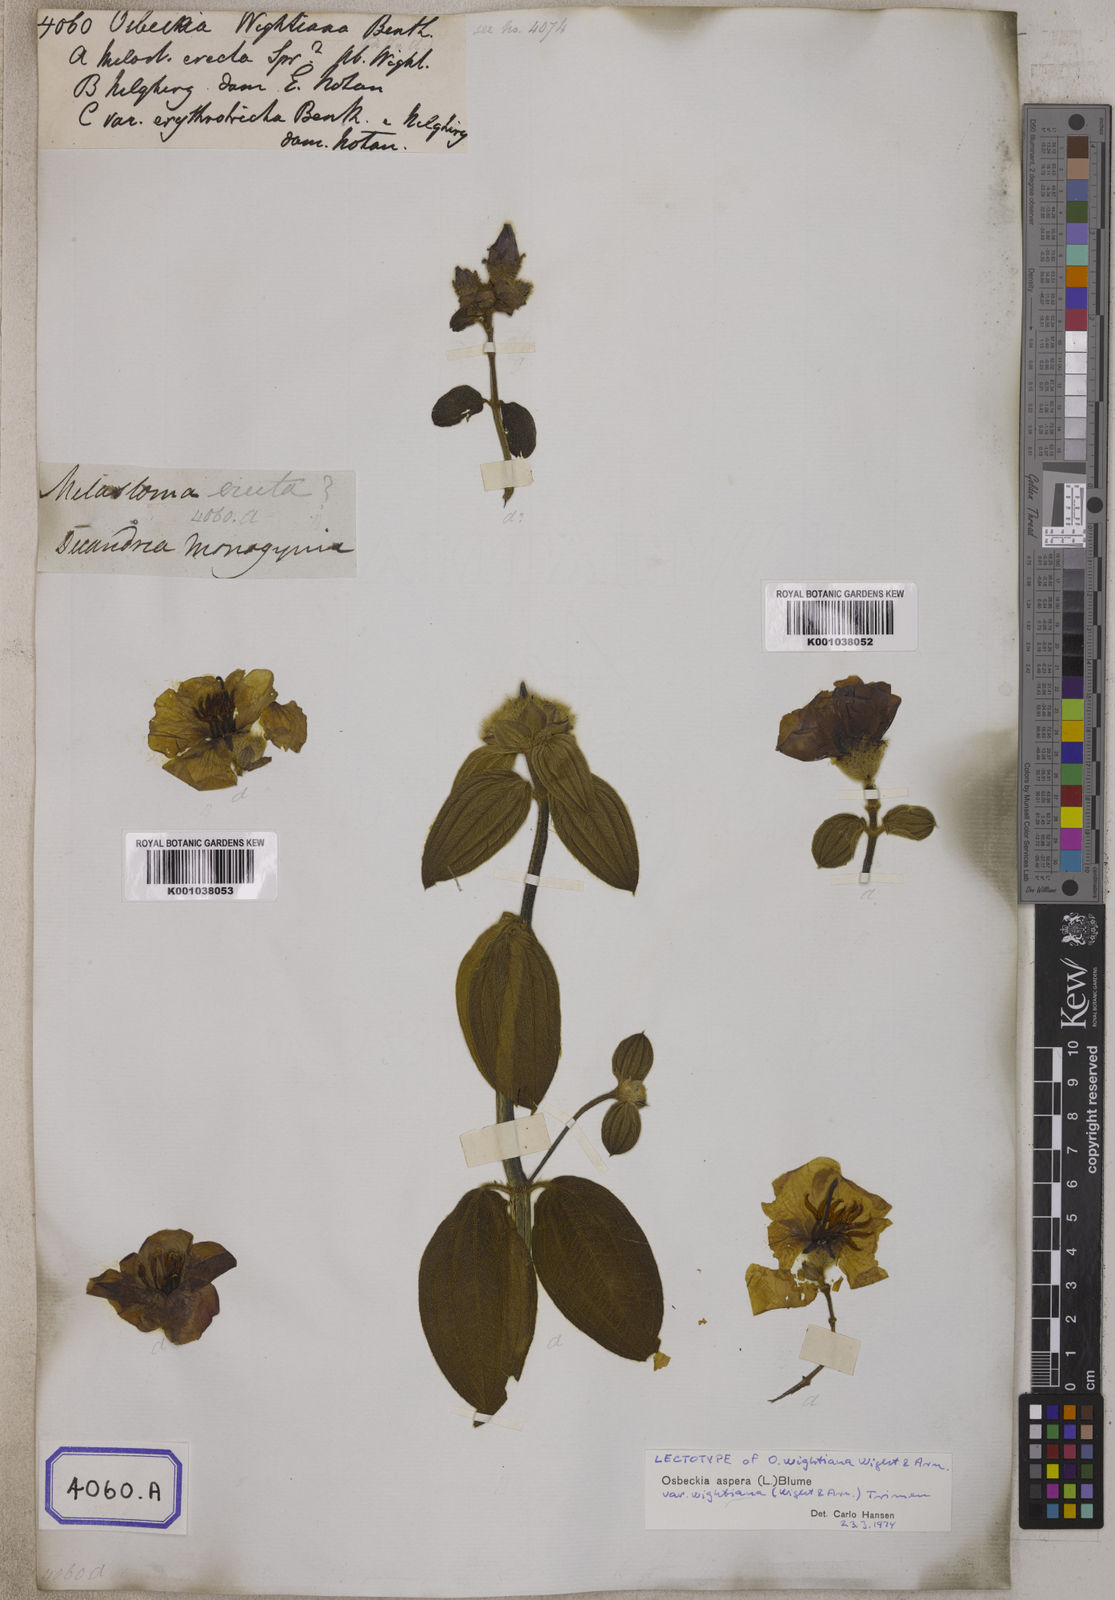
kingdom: Plantae
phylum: Tracheophyta
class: Magnoliopsida
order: Myrtales
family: Melastomataceae
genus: Osbeckia
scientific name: Osbeckia
